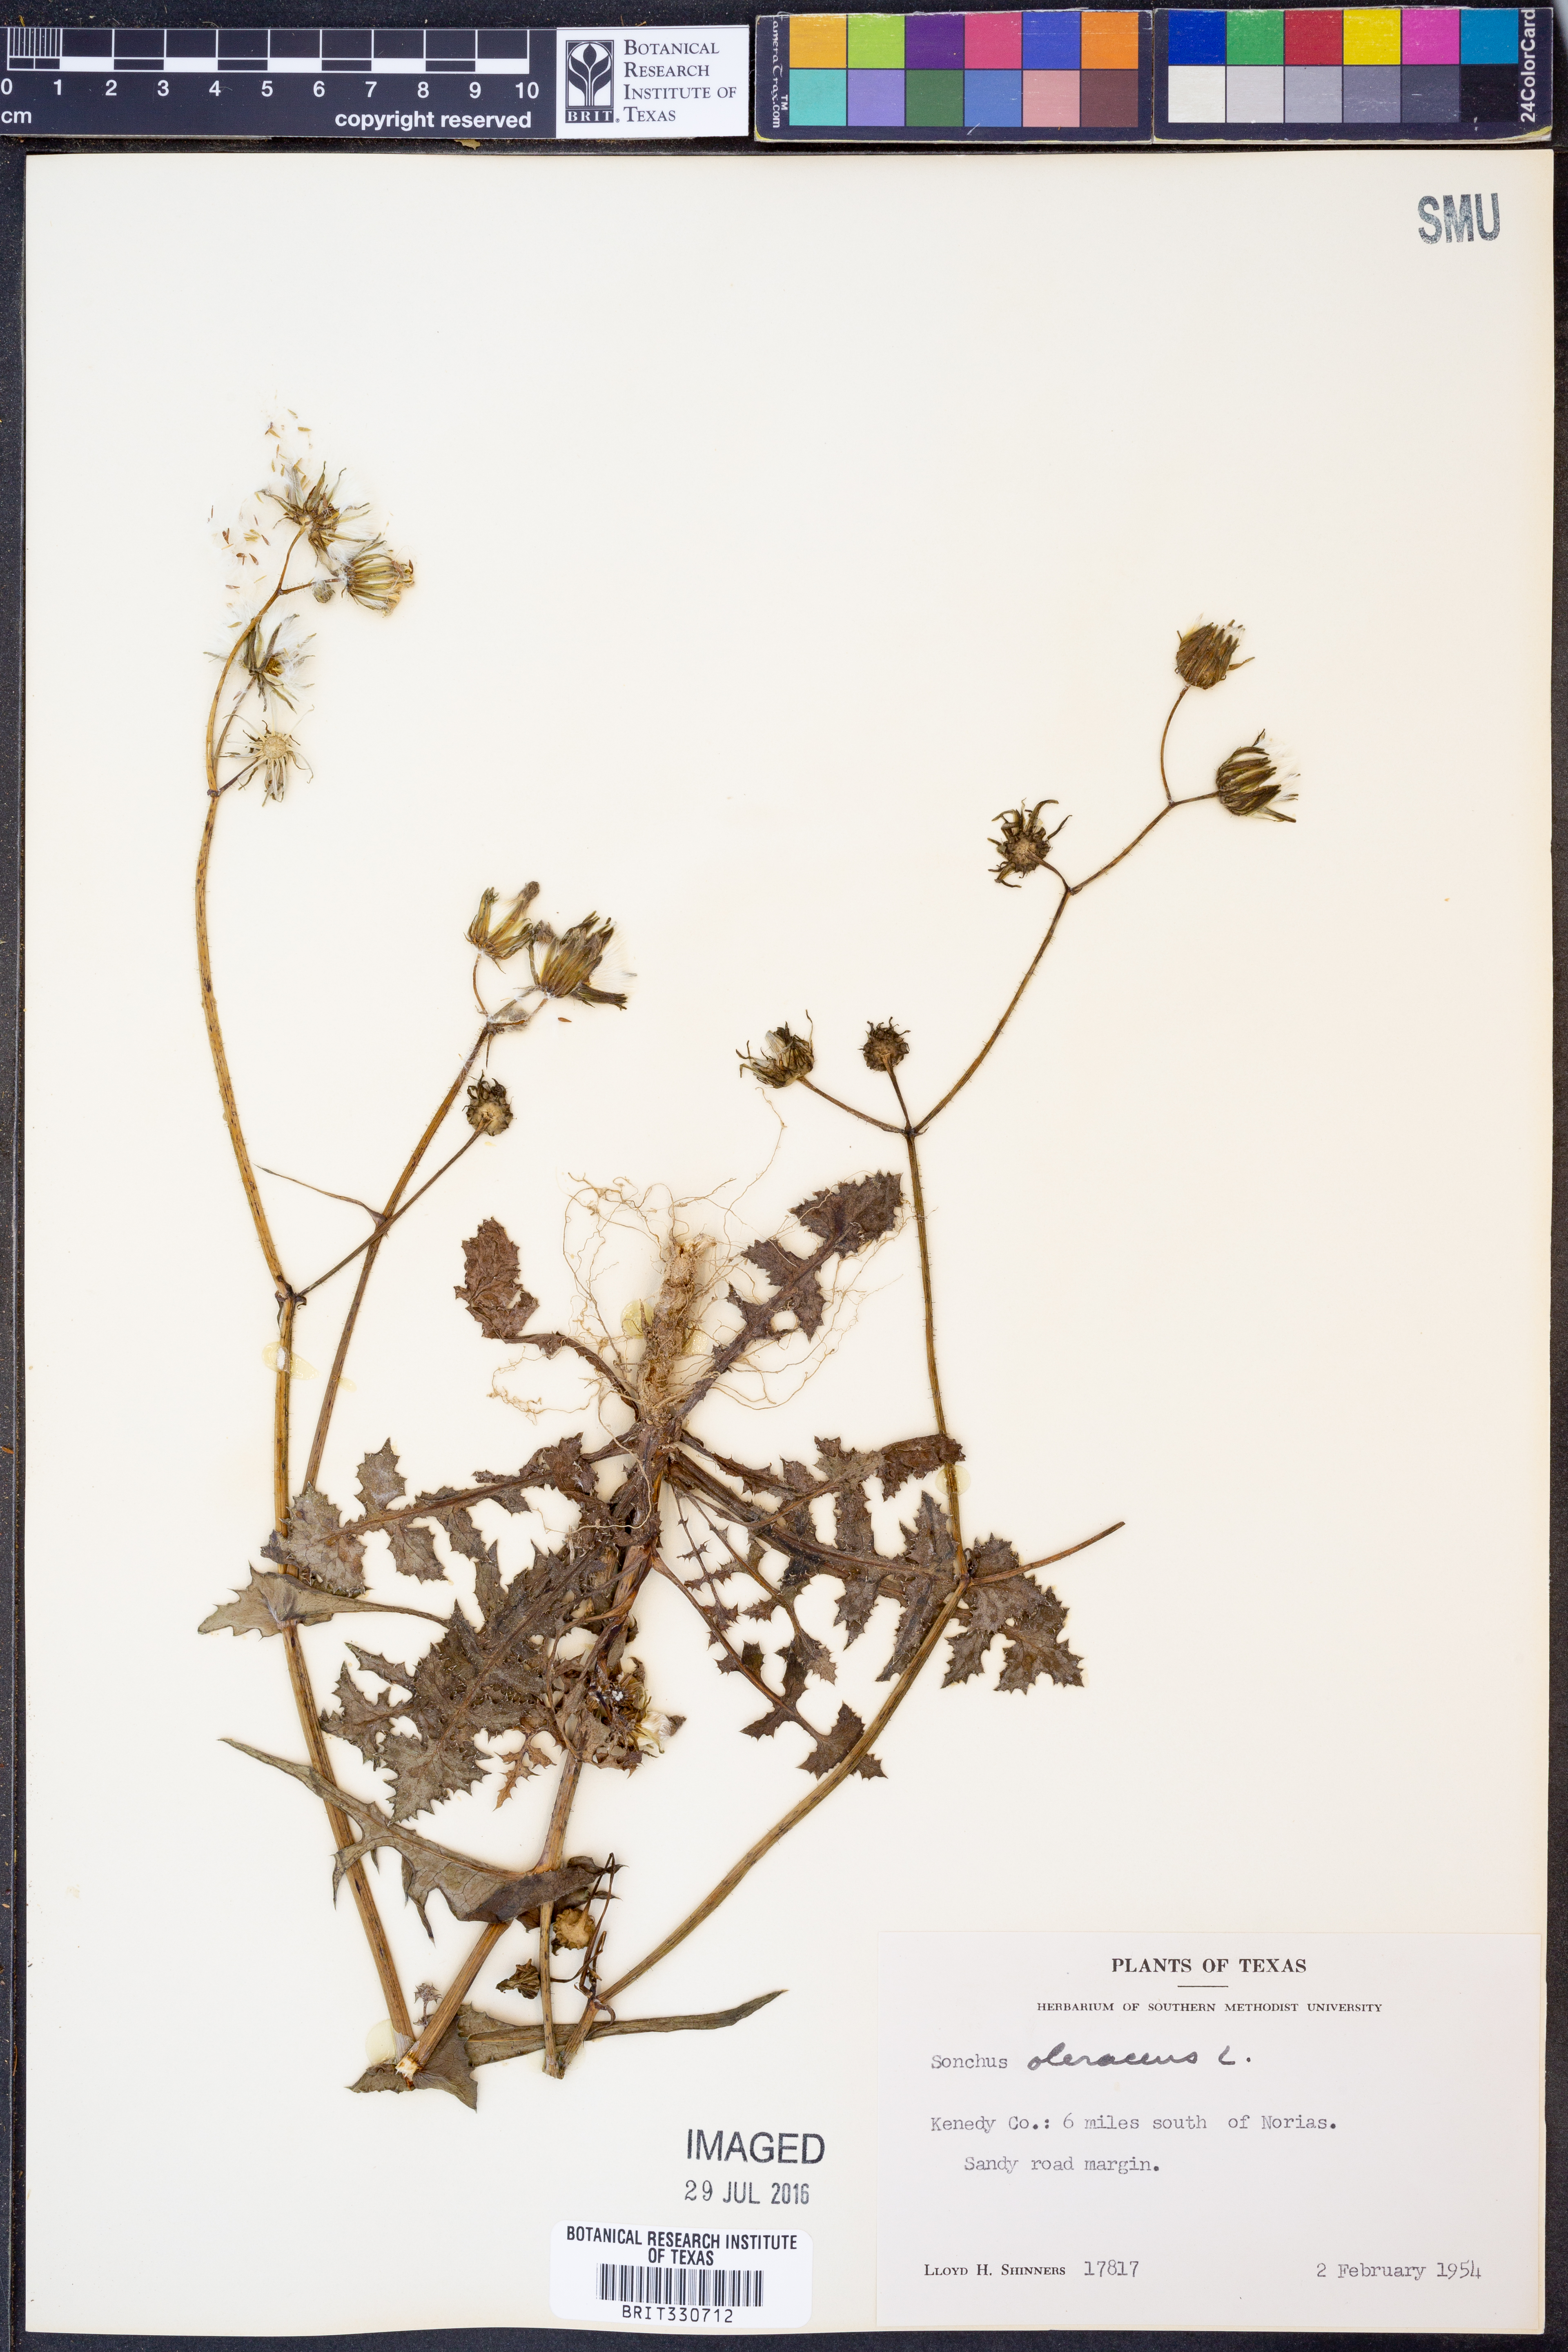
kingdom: Plantae
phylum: Tracheophyta
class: Magnoliopsida
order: Asterales
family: Asteraceae
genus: Sonchus
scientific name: Sonchus oleraceus
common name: Common sowthistle
